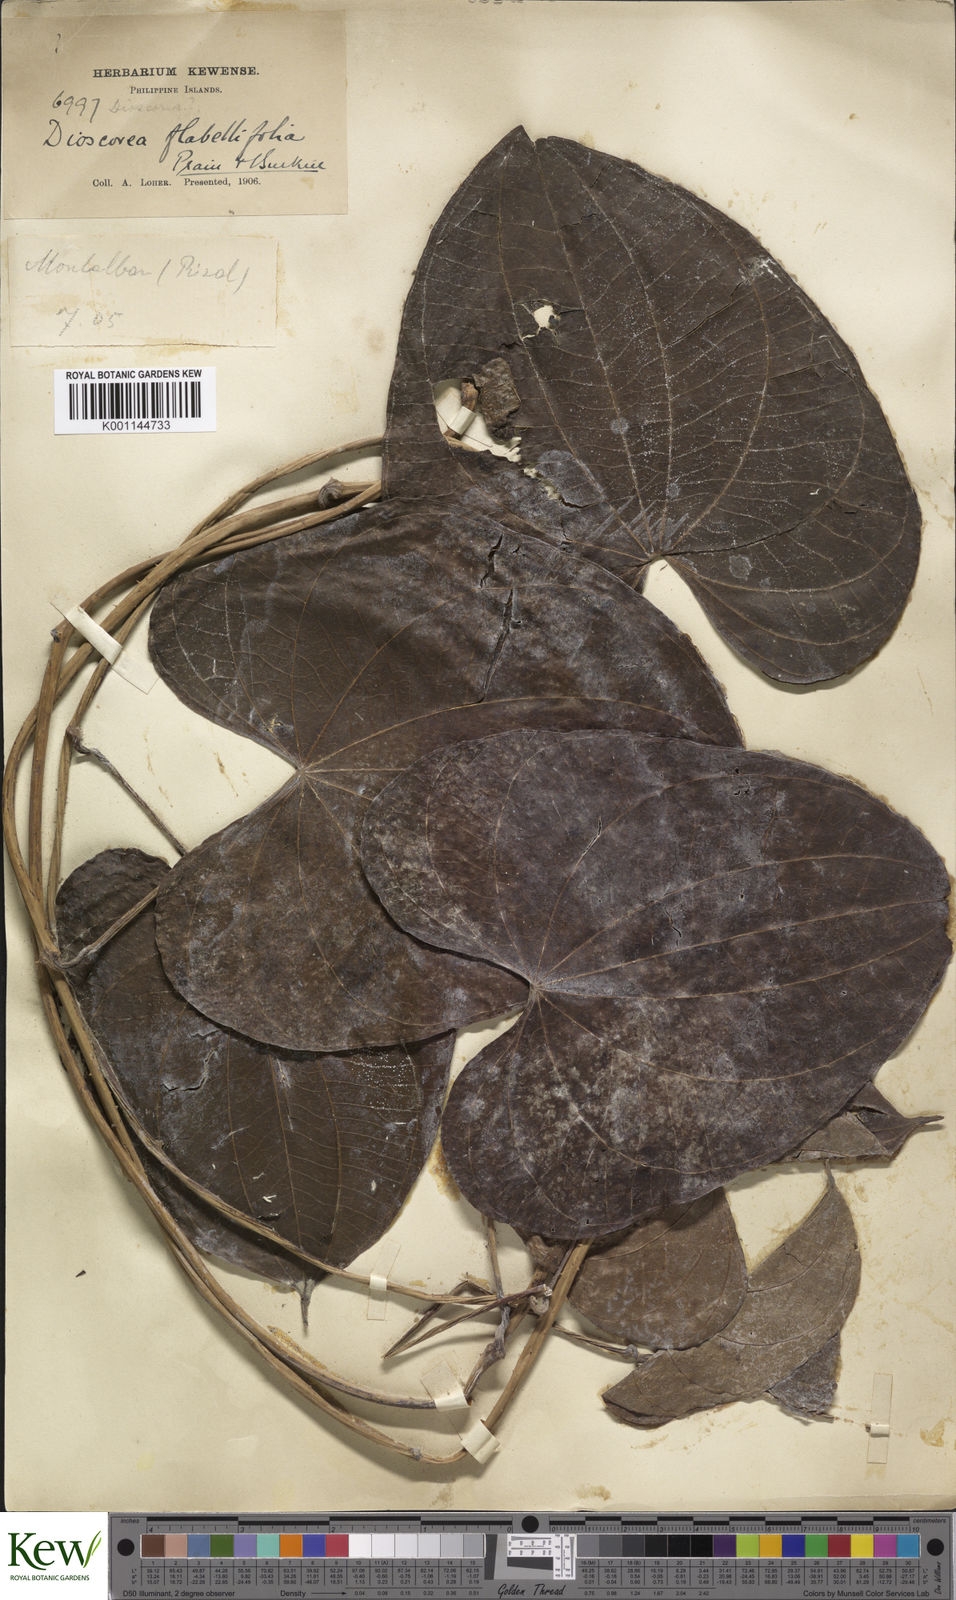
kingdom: Plantae
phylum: Tracheophyta
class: Liliopsida
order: Dioscoreales
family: Dioscoreaceae
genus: Dioscorea
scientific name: Dioscorea flabellifolia
